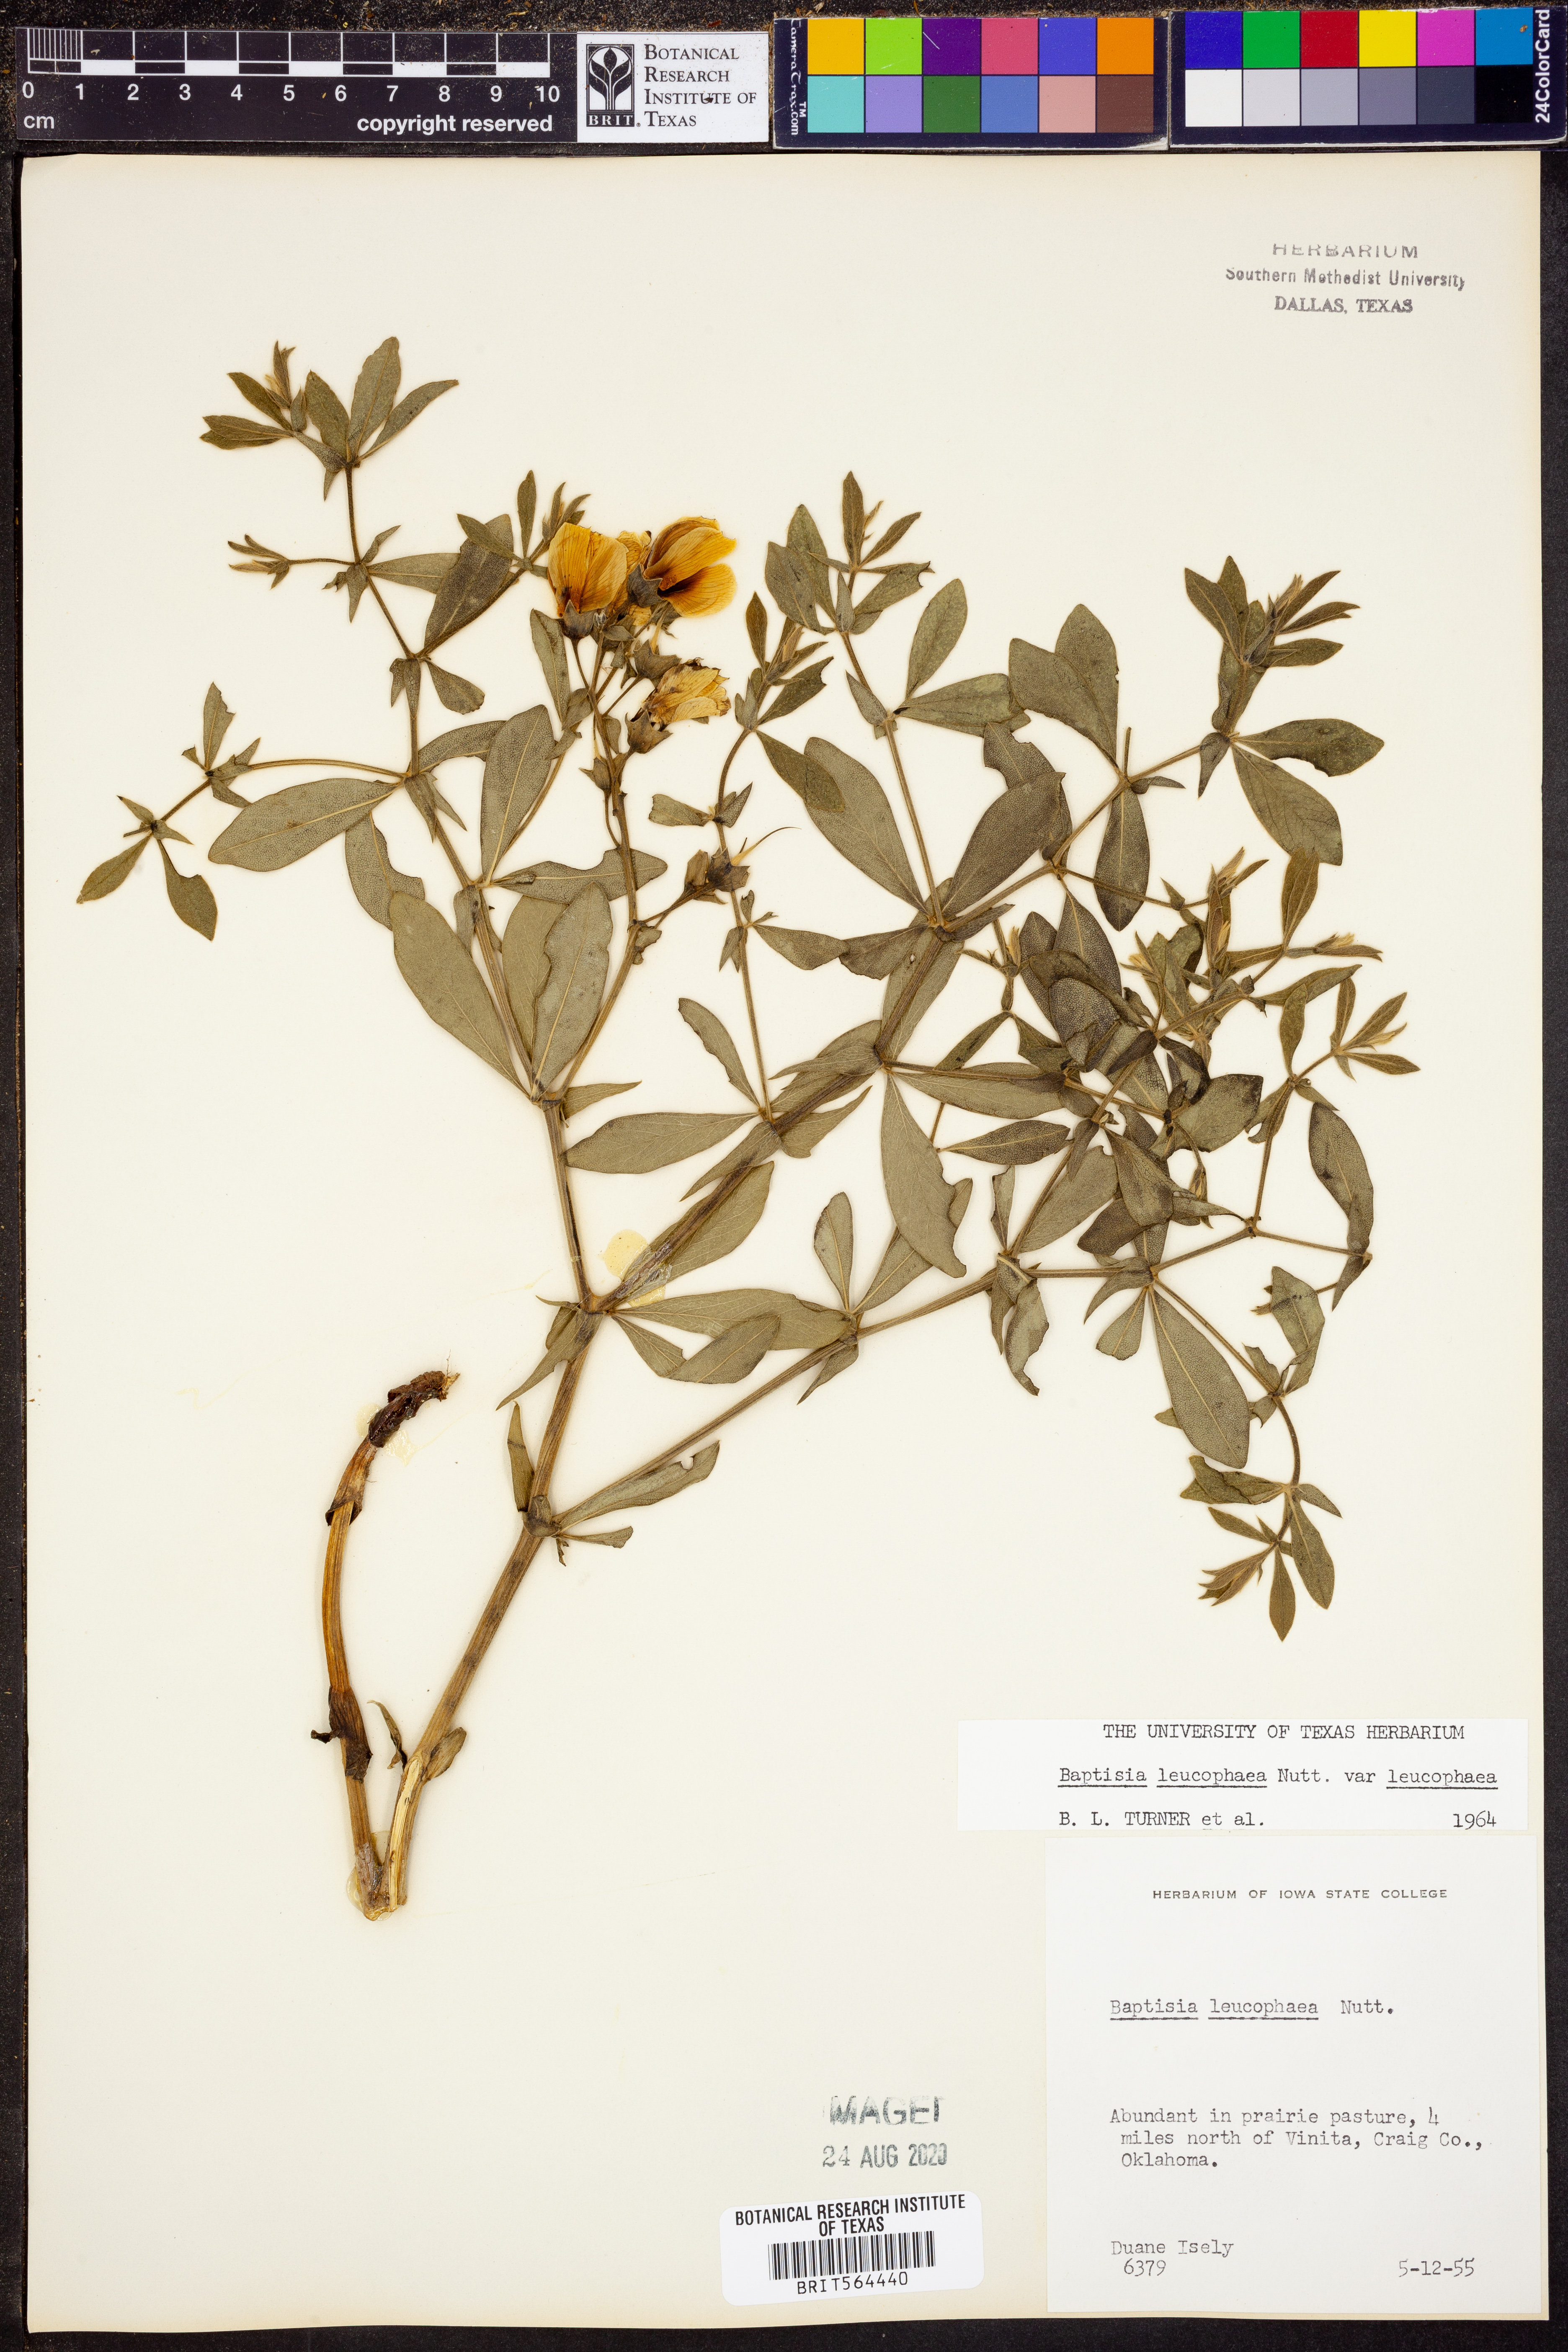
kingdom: Plantae
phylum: Tracheophyta
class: Magnoliopsida
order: Fabales
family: Fabaceae
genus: Baptisia
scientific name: Baptisia bracteata
